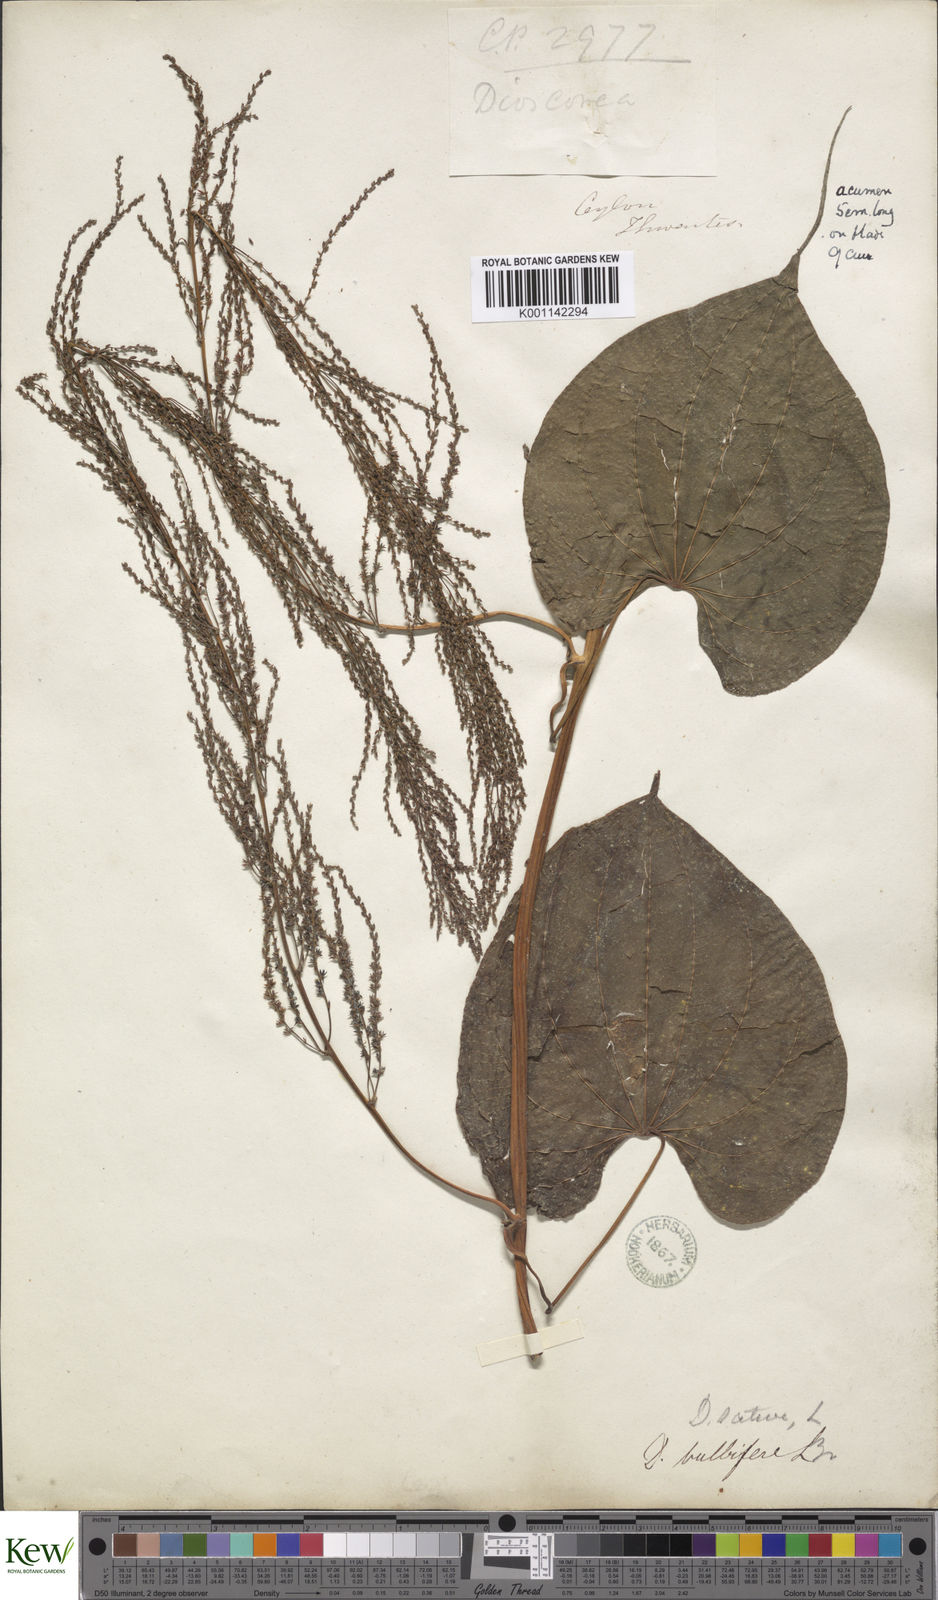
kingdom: Plantae
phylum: Tracheophyta
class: Liliopsida
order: Dioscoreales
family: Dioscoreaceae
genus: Dioscorea
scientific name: Dioscorea bulbifera
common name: Air yam
